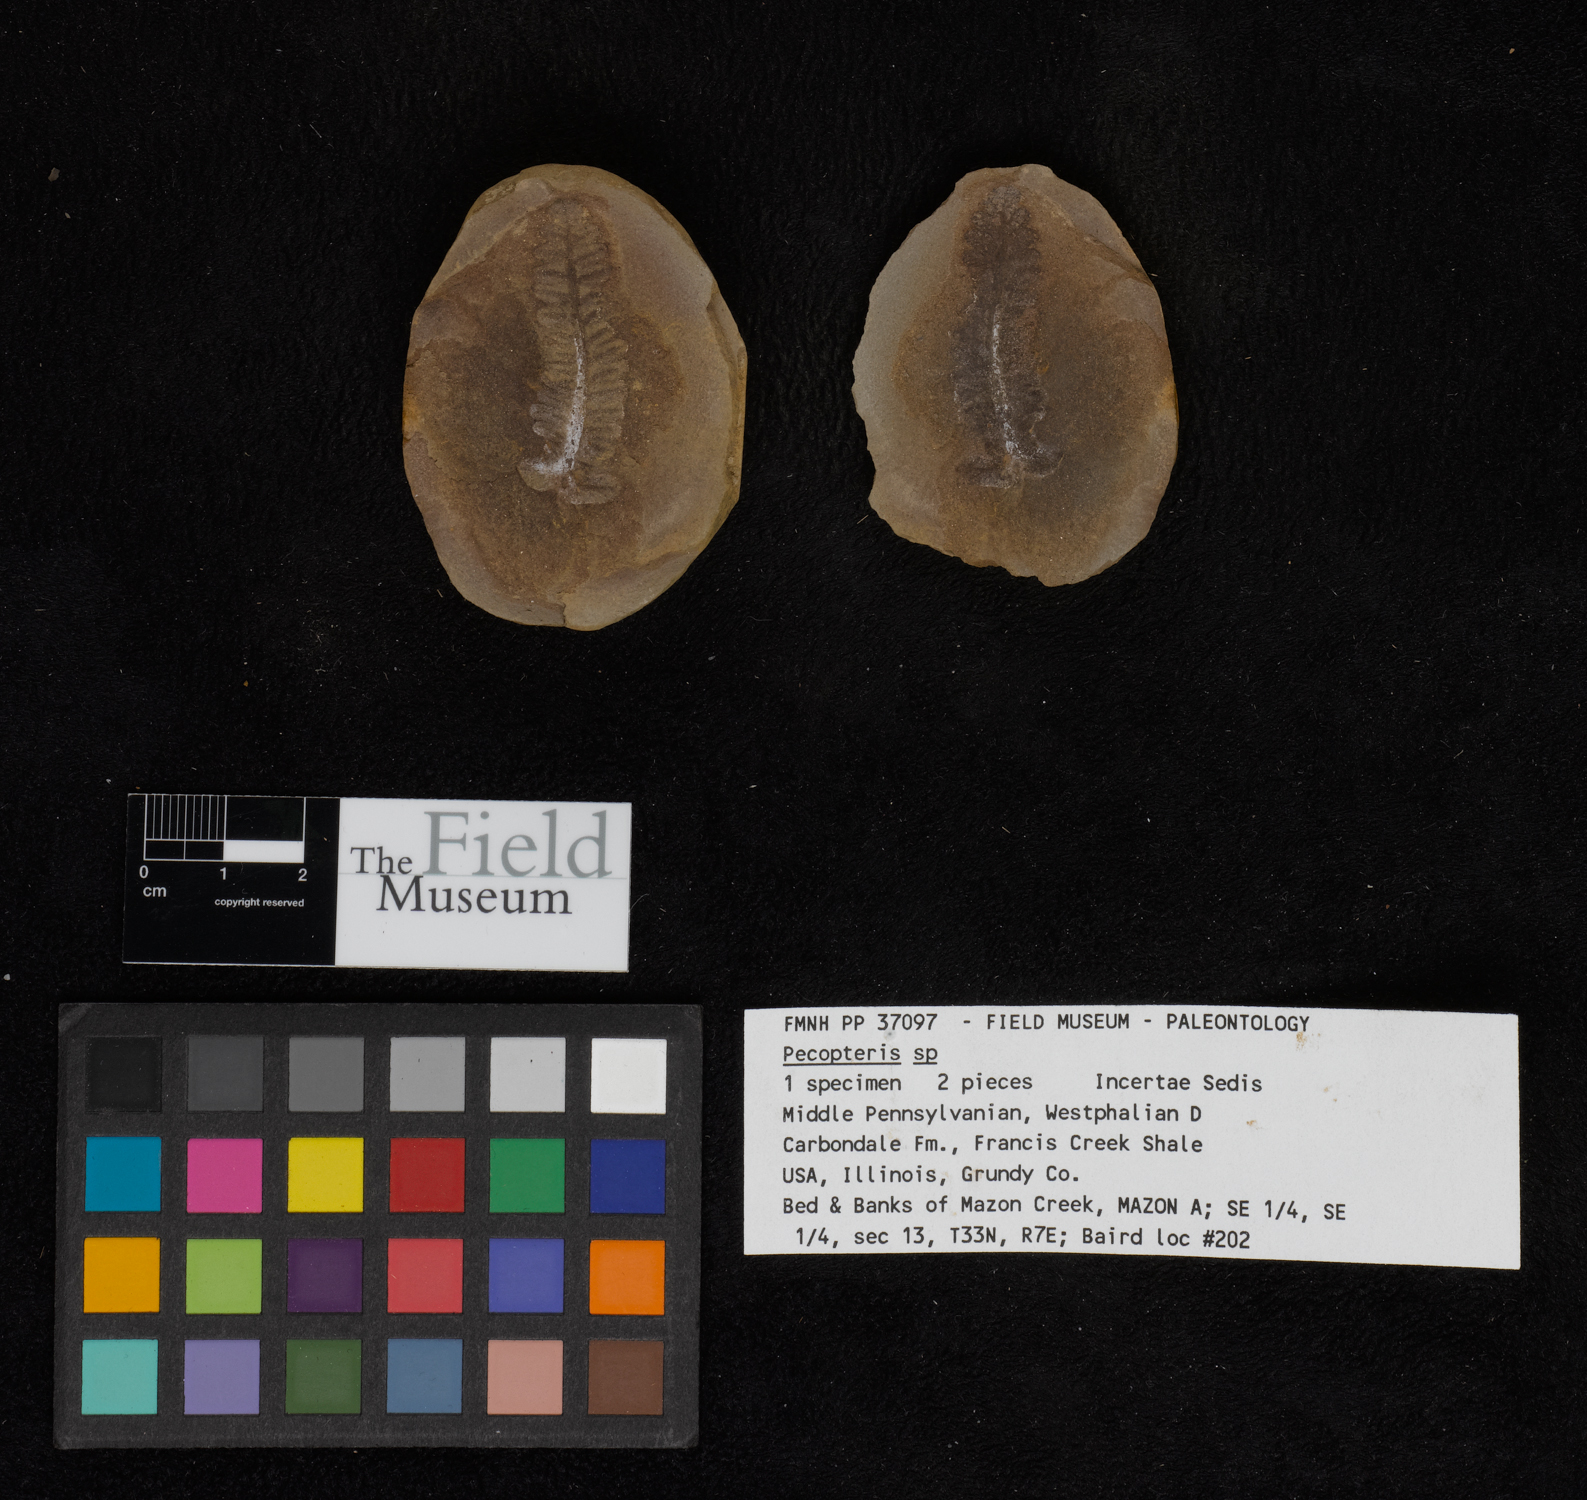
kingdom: Plantae
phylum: Tracheophyta
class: Polypodiopsida
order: Marattiales
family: Asterothecaceae
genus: Pecopteris
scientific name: Pecopteris
